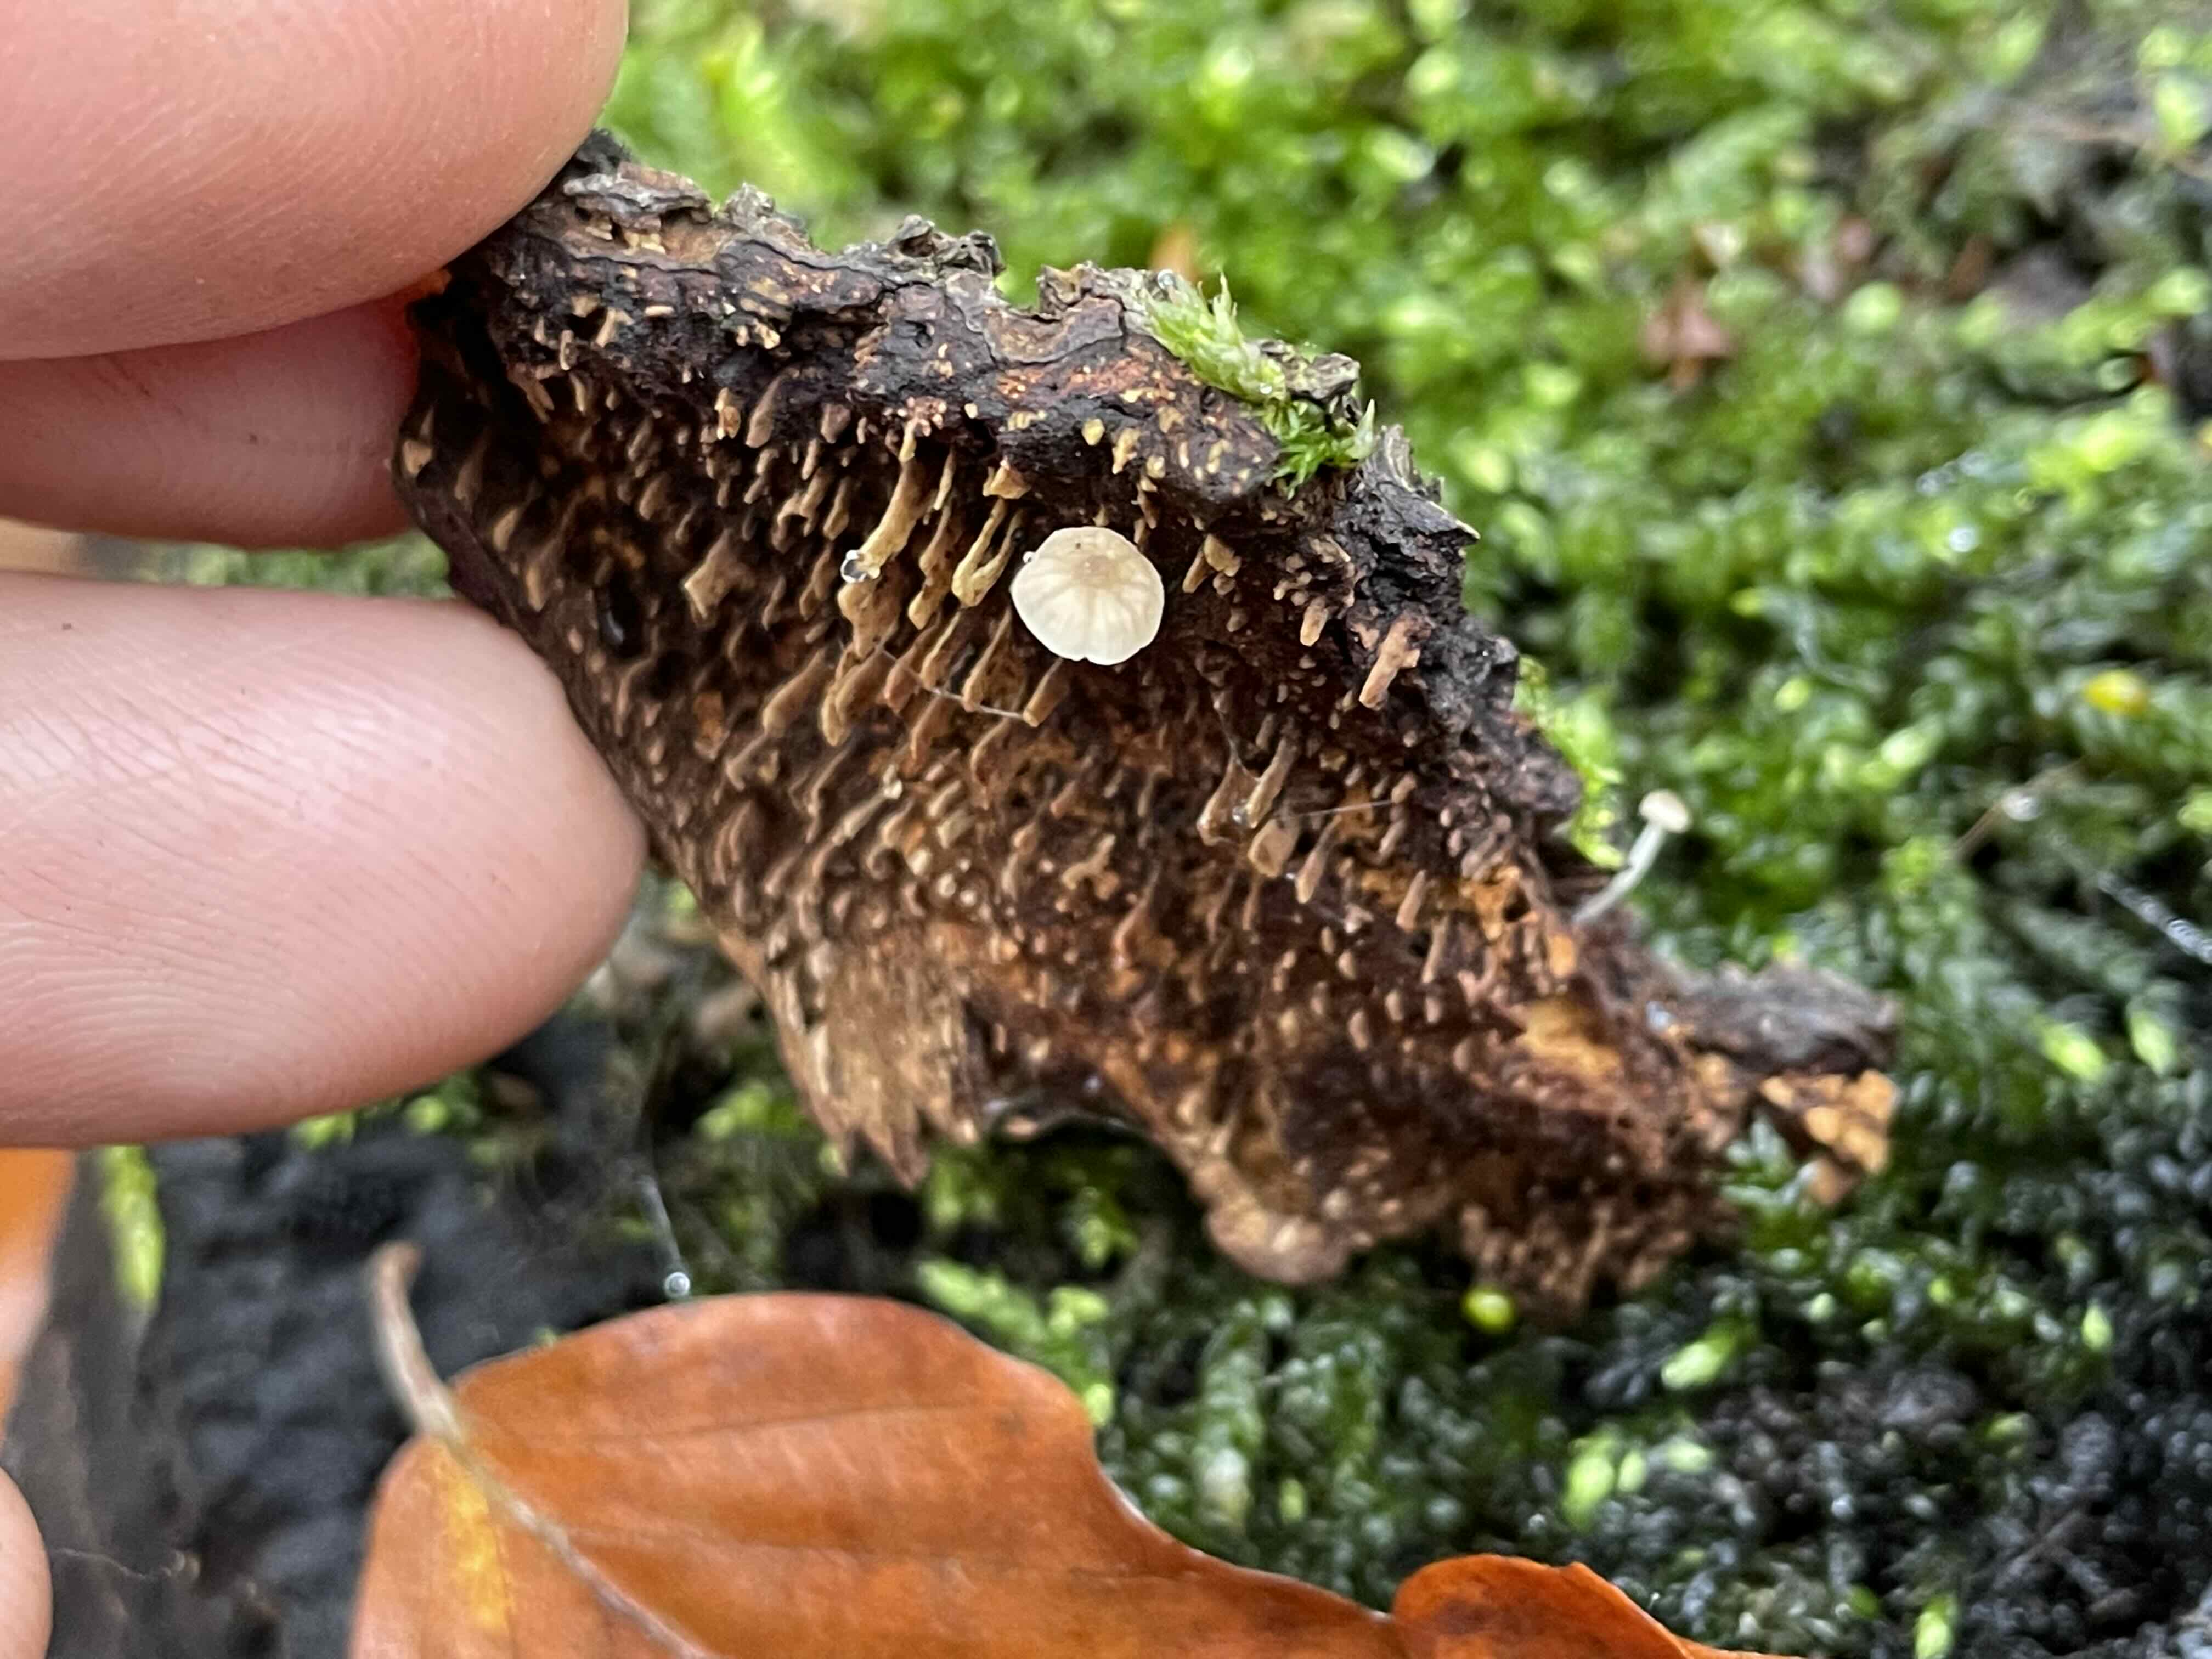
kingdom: Fungi
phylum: Basidiomycota
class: Agaricomycetes
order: Agaricales
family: Porotheleaceae
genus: Phloeomana
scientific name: Phloeomana speirea
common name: kvist-huesvamp
